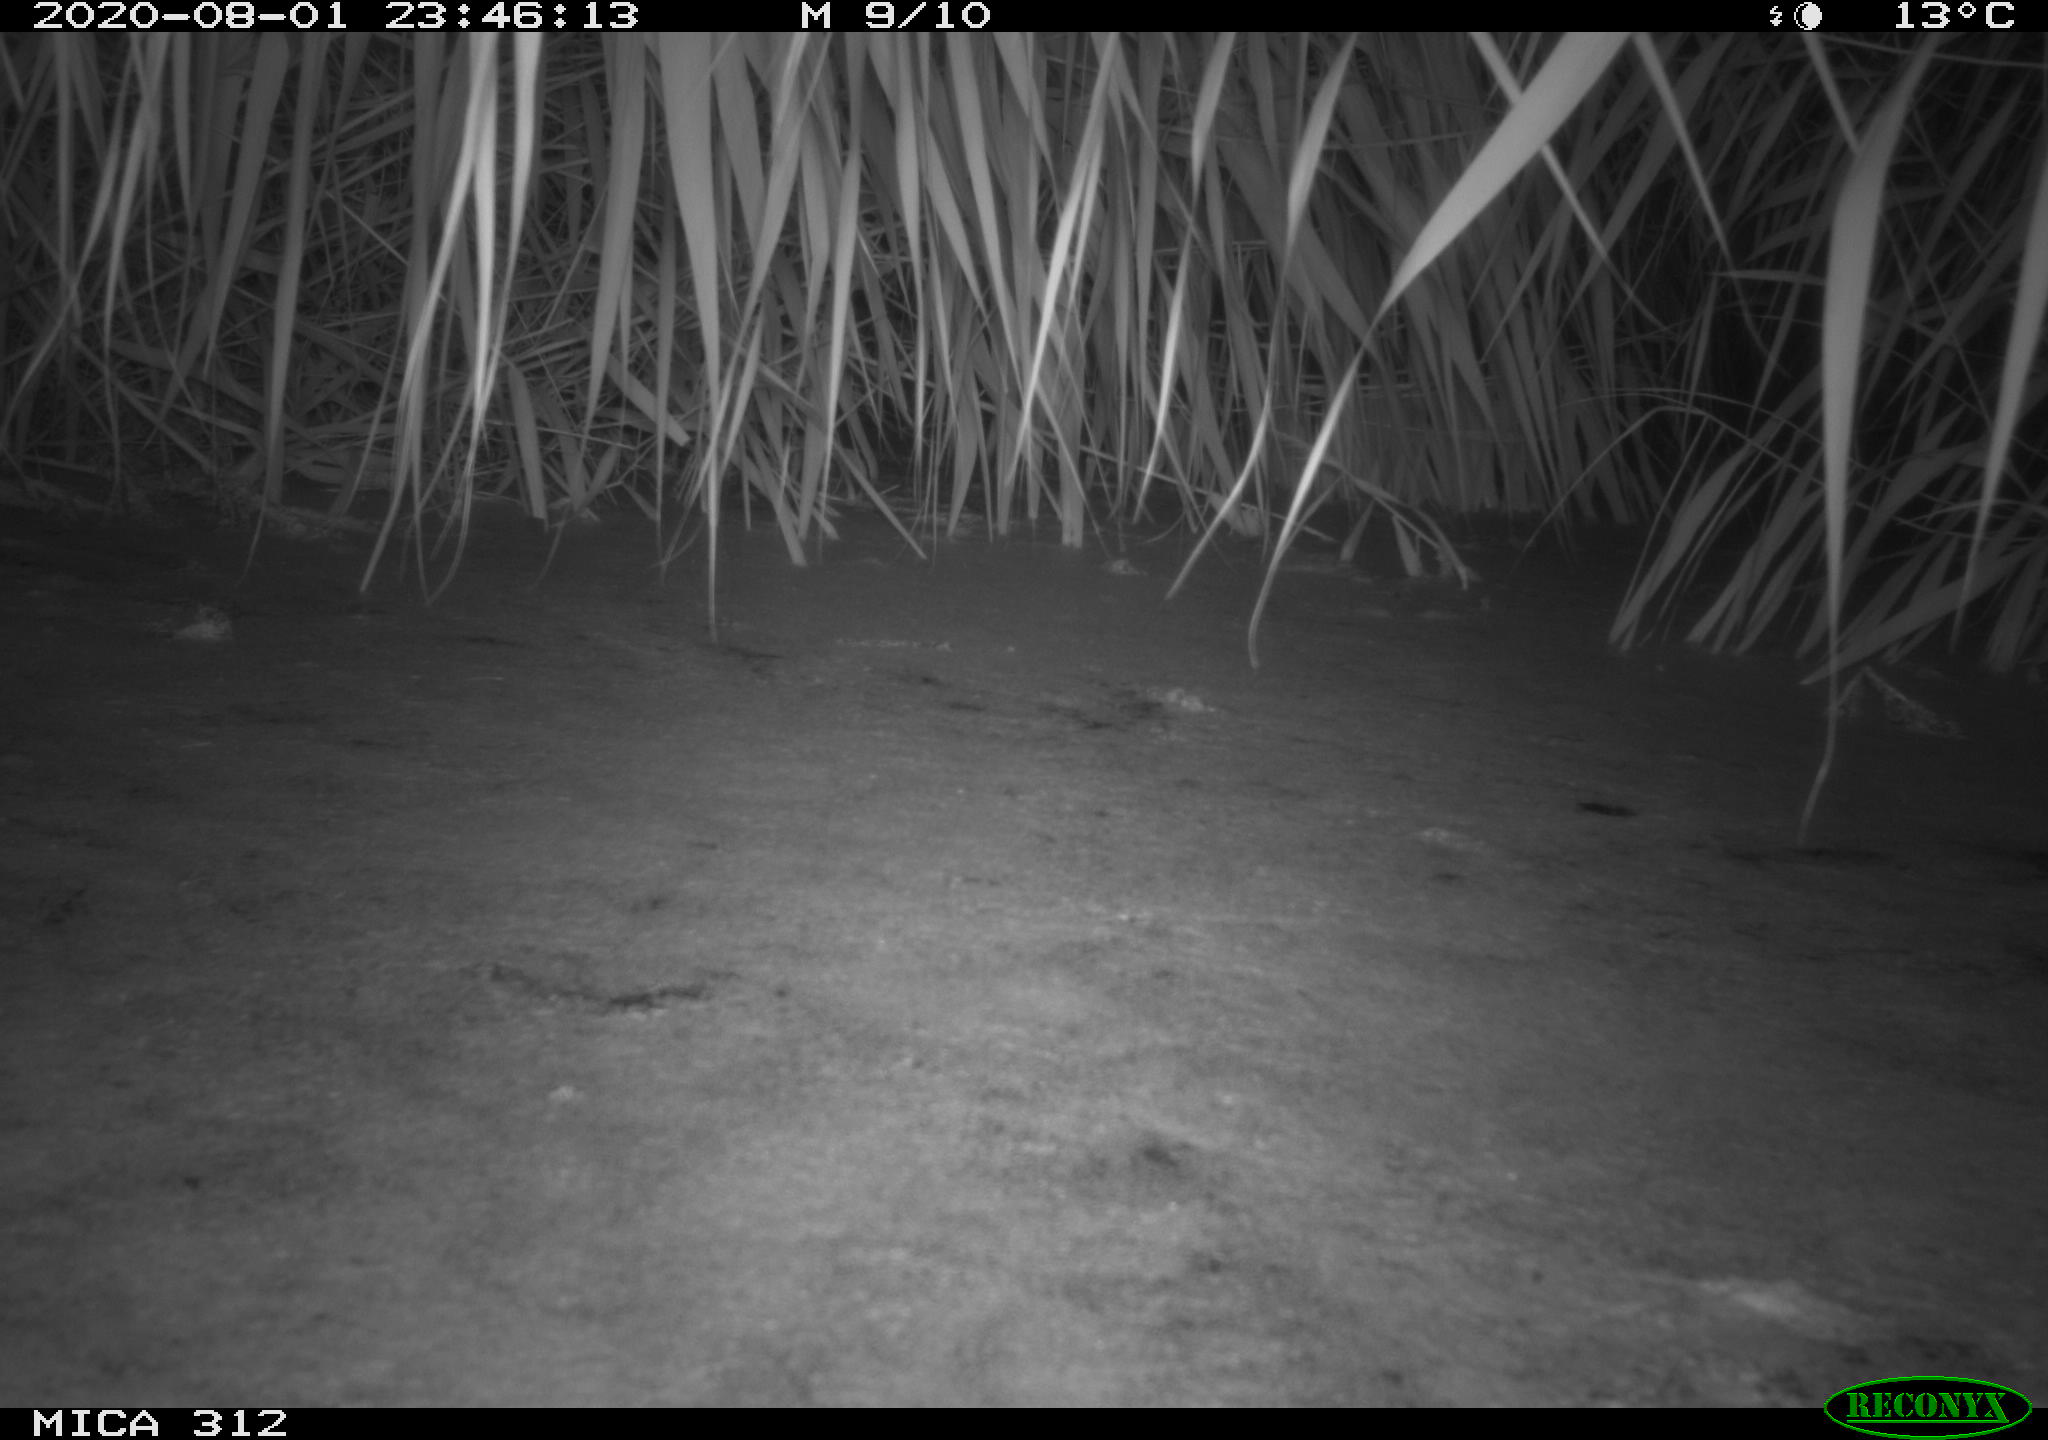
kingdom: Animalia
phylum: Chordata
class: Aves
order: Anseriformes
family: Anatidae
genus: Anas
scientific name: Anas platyrhynchos
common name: Mallard
